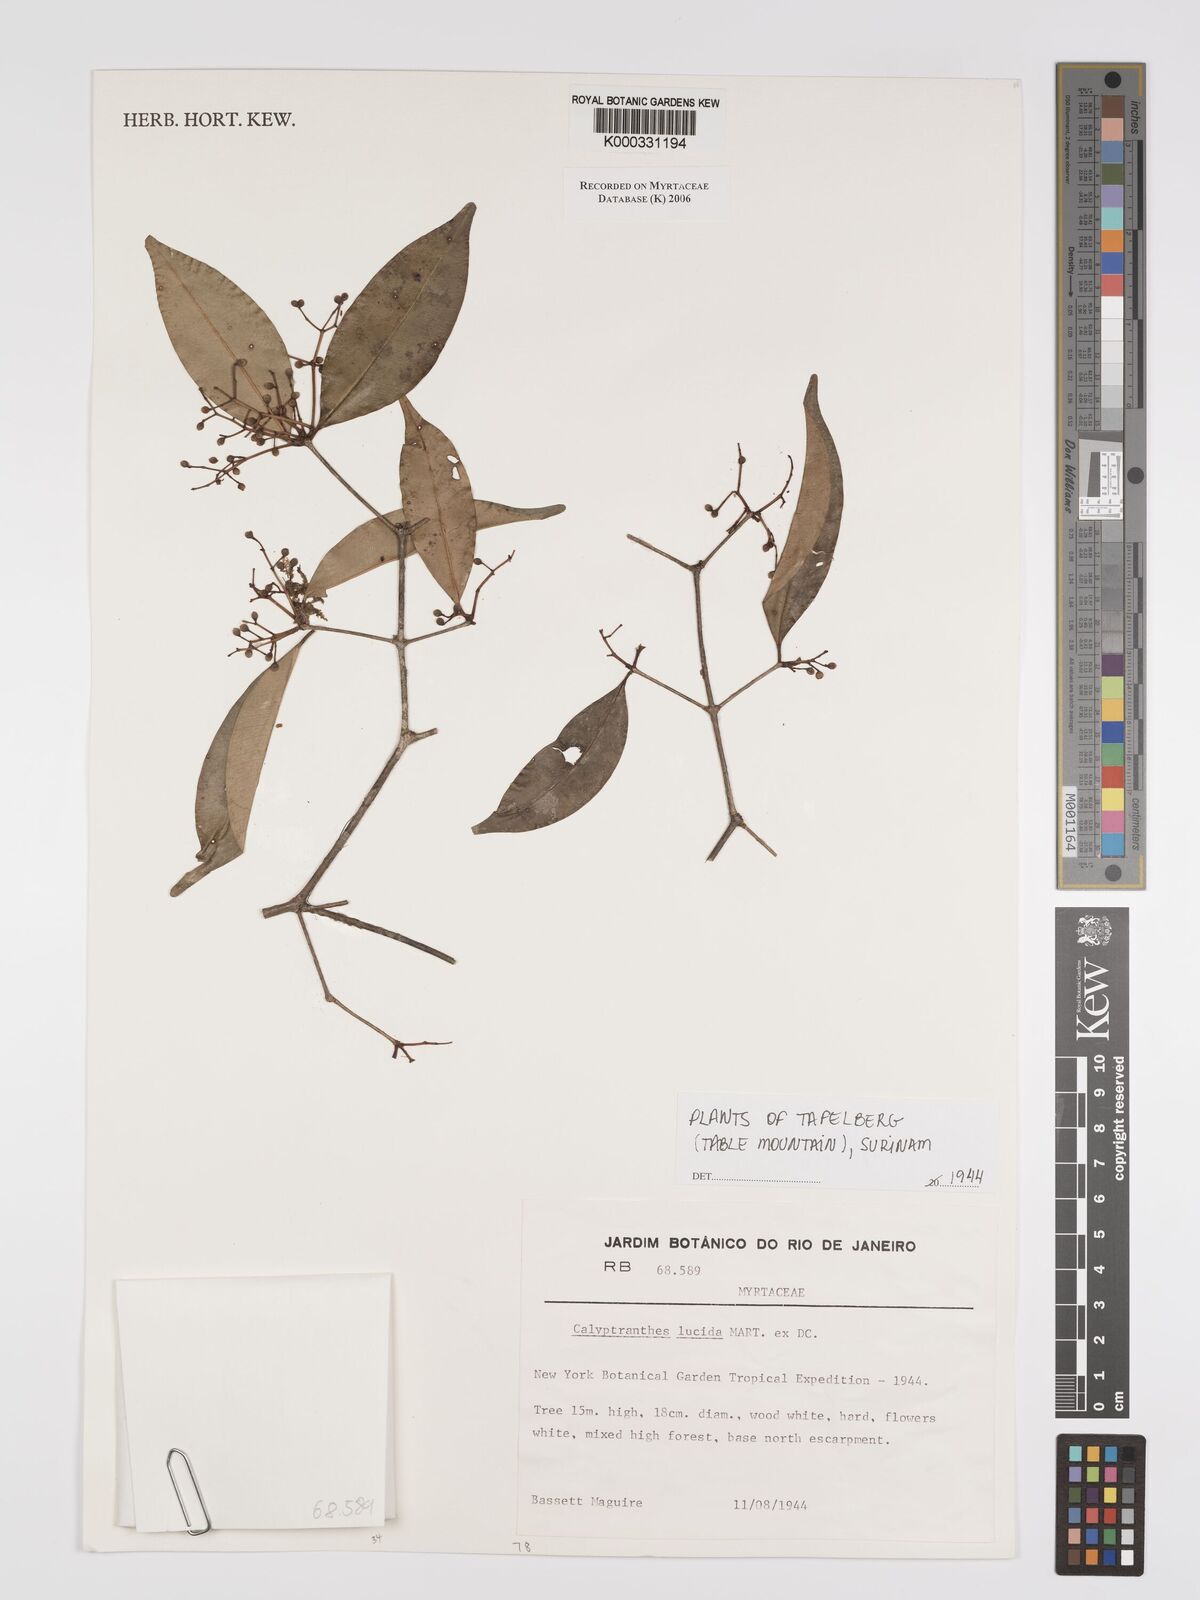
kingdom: Plantae
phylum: Tracheophyta
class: Magnoliopsida
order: Myrtales
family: Myrtaceae
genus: Myrcia
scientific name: Myrcia neolucida
